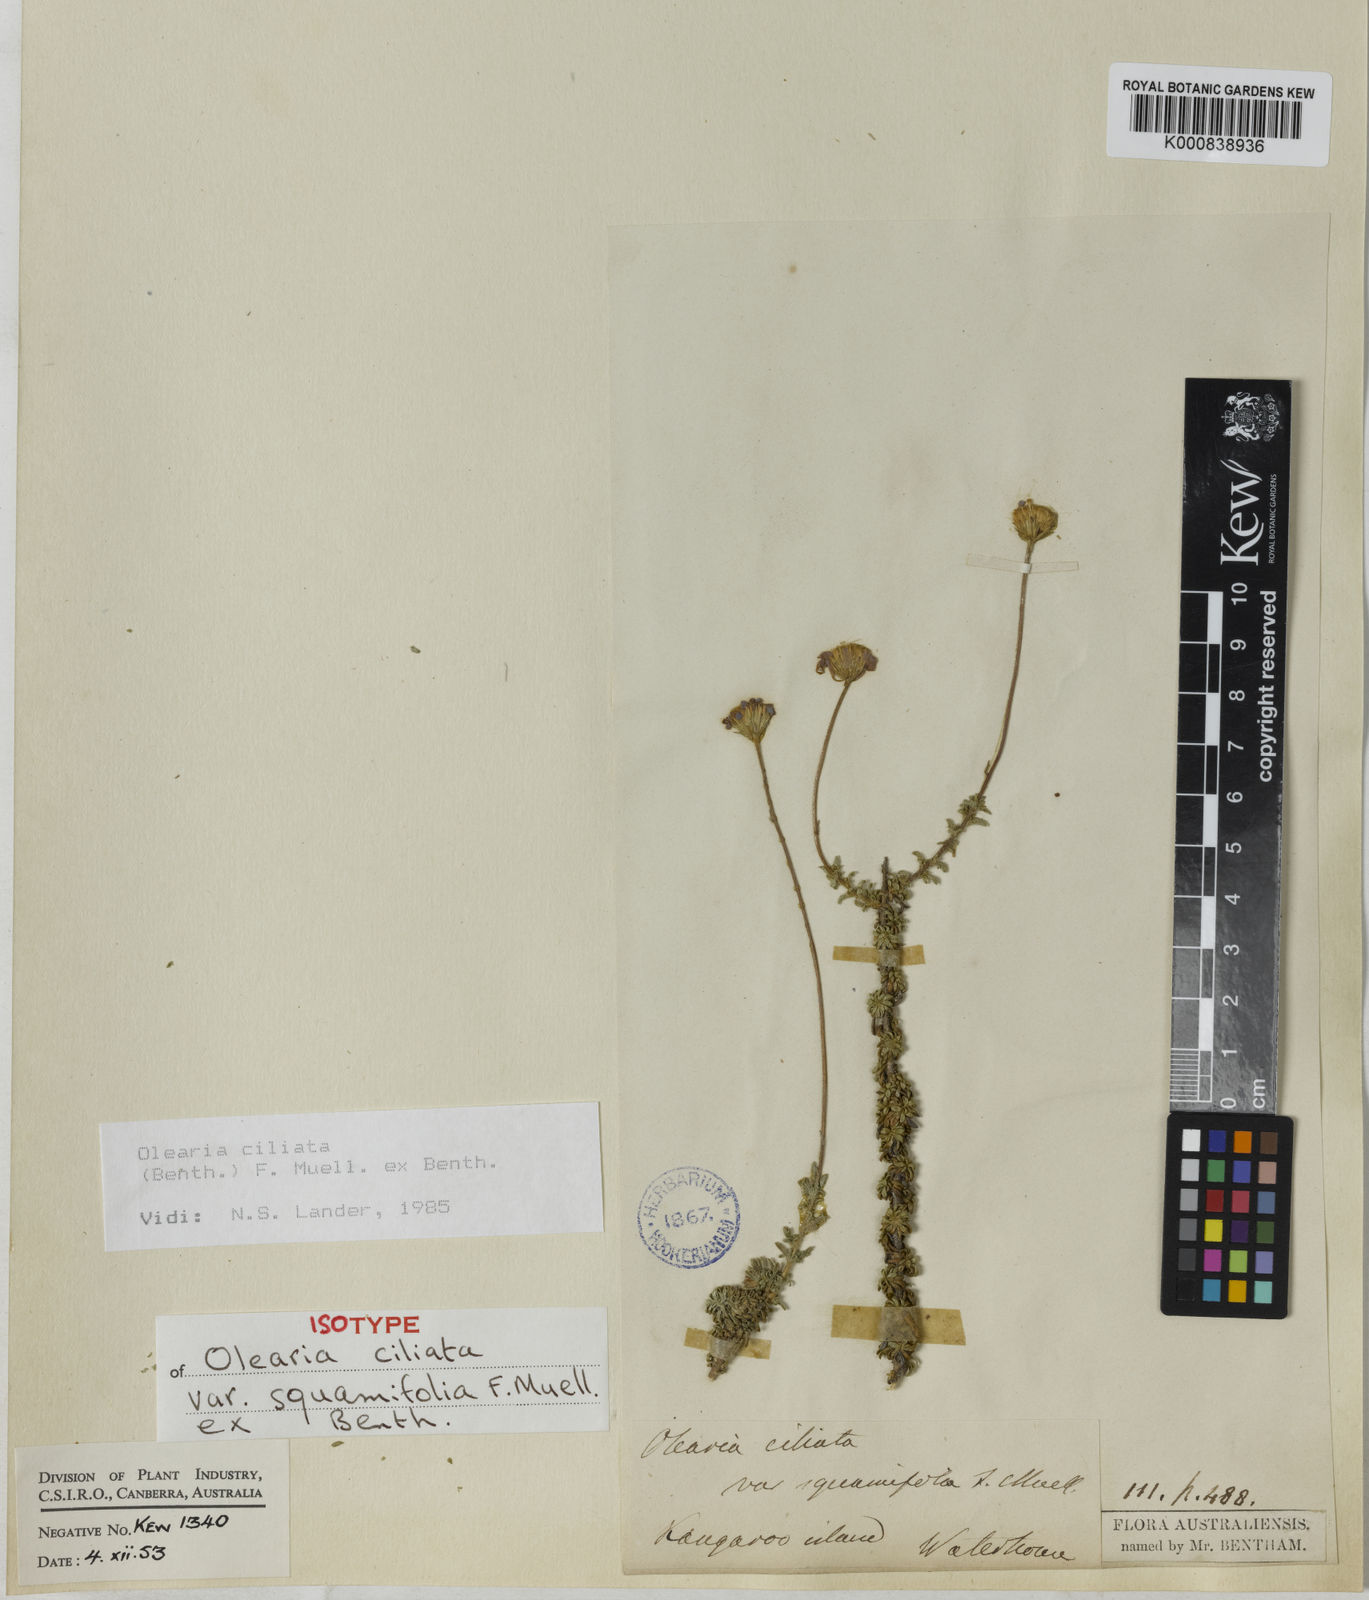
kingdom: Plantae
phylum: Tracheophyta
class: Magnoliopsida
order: Asterales
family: Asteraceae
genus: Vicinia
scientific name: Vicinia ciliata
